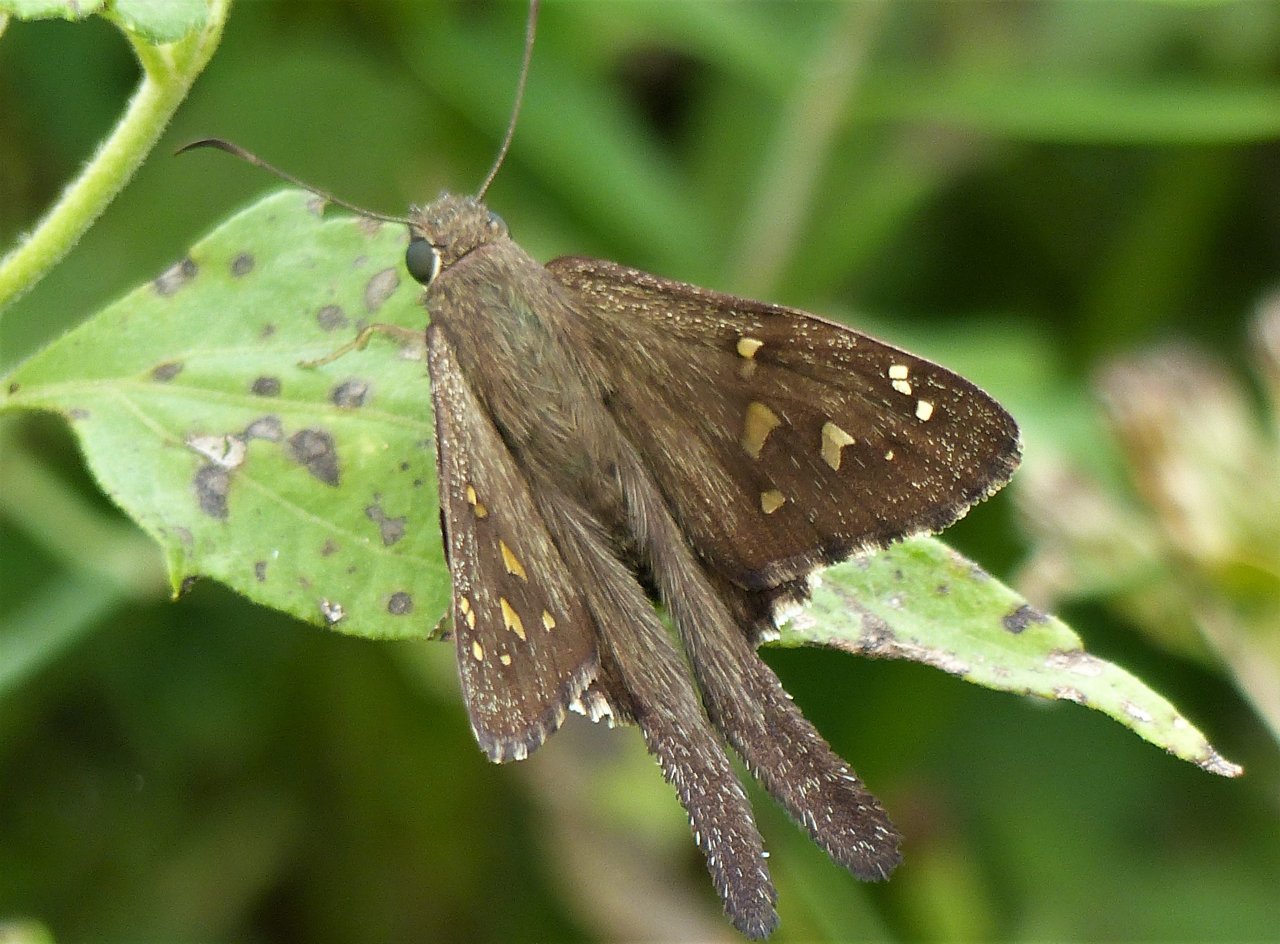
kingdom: Animalia
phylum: Arthropoda
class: Insecta
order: Lepidoptera
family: Hesperiidae
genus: Urbanus
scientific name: Urbanus dorantes
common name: Dorantes Longtail
